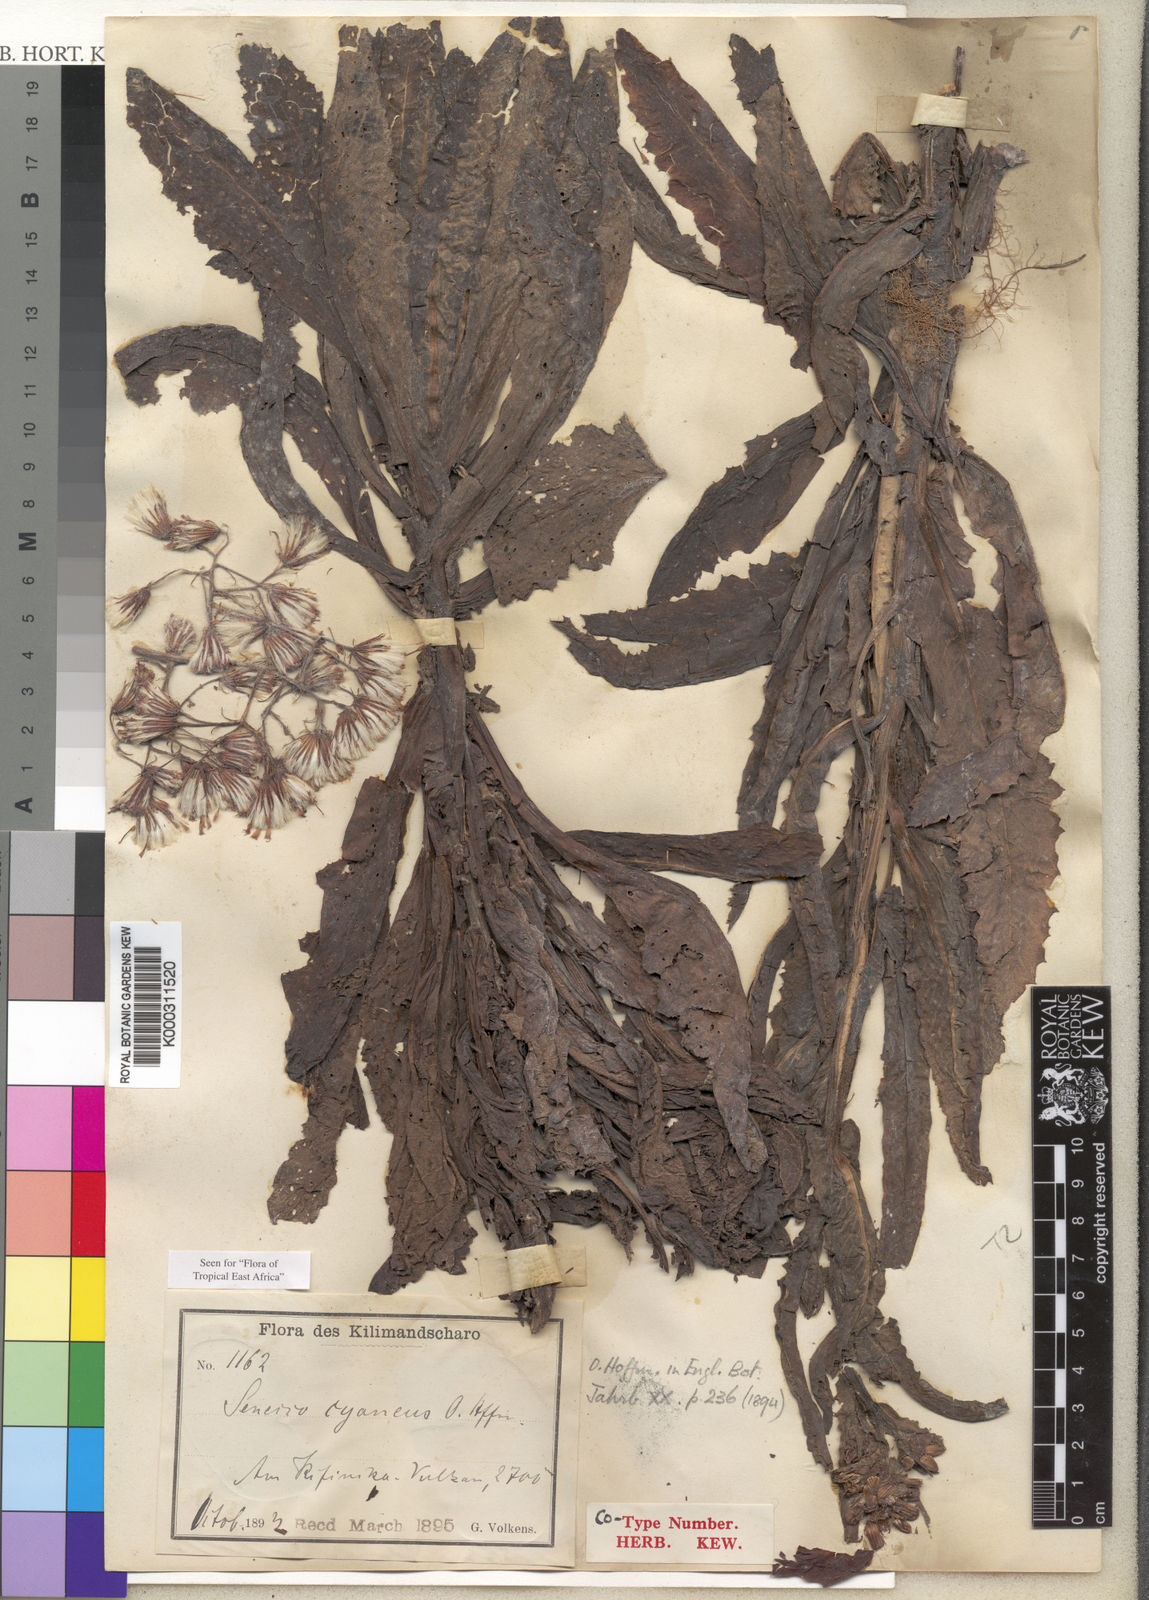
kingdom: Plantae
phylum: Tracheophyta
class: Magnoliopsida
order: Asterales
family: Asteraceae
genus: Senecio
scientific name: Senecio cyaneus
